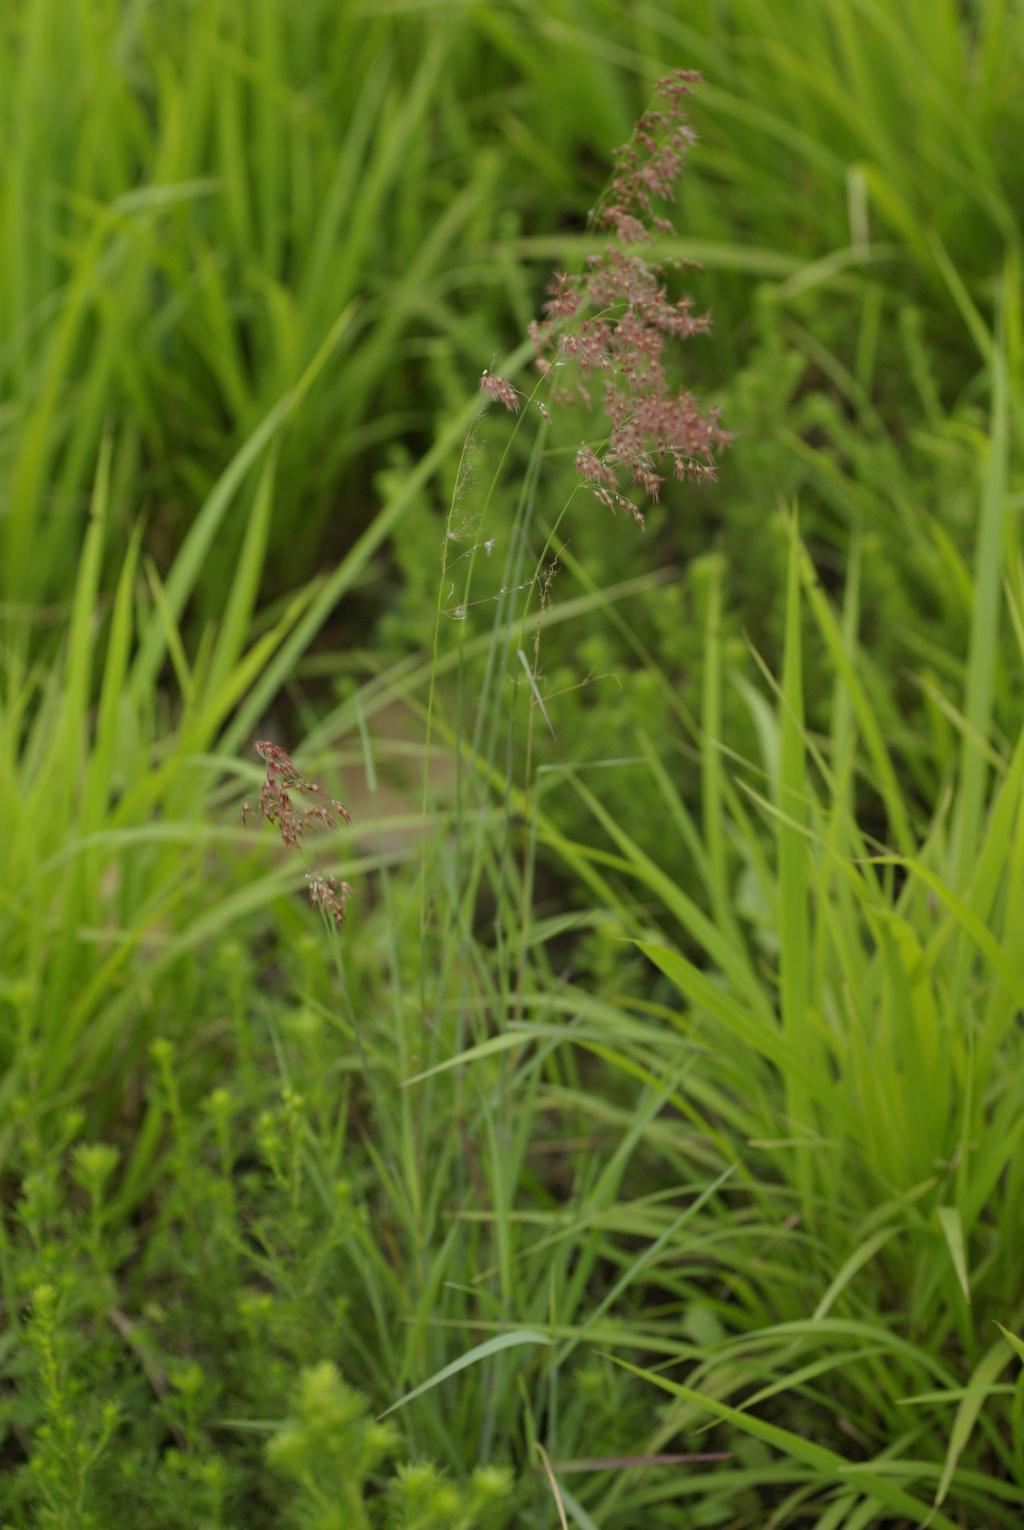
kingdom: Plantae
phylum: Tracheophyta
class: Liliopsida
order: Poales
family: Poaceae
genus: Melinis
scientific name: Melinis repens
